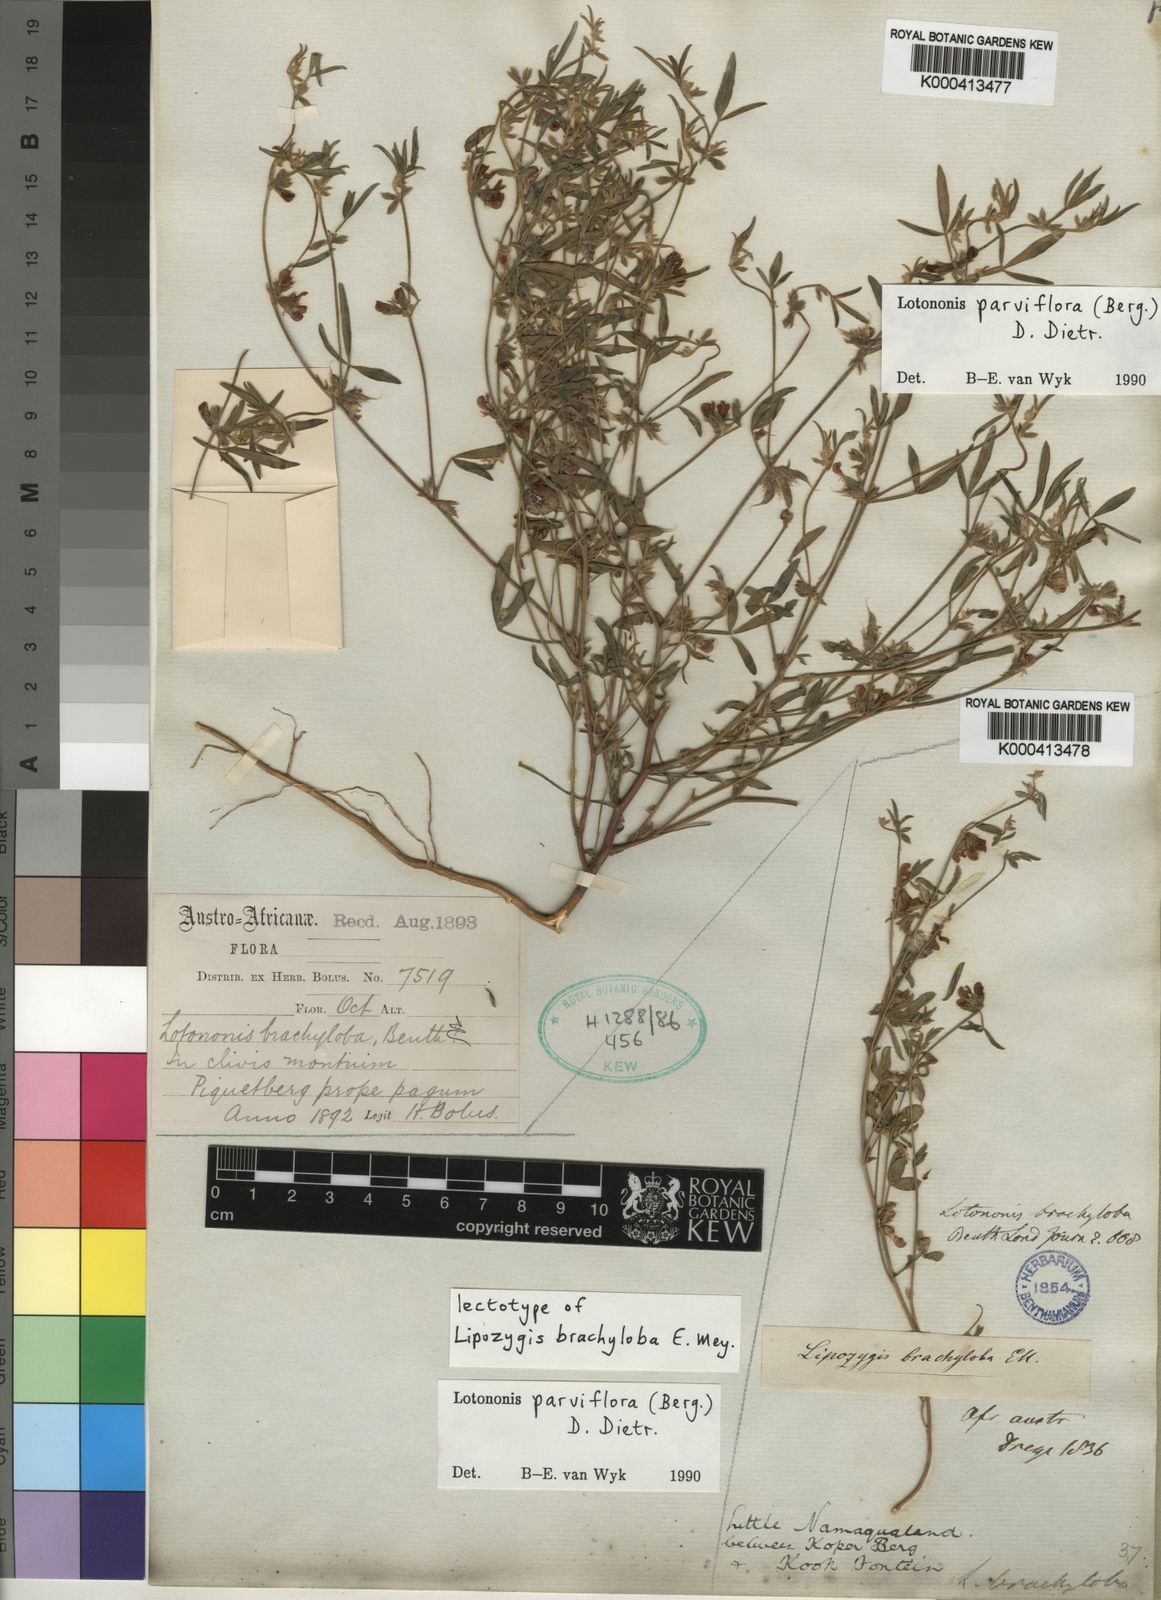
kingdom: Plantae
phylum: Tracheophyta
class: Magnoliopsida
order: Fabales
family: Fabaceae
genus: Lotononis
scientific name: Lotononis
